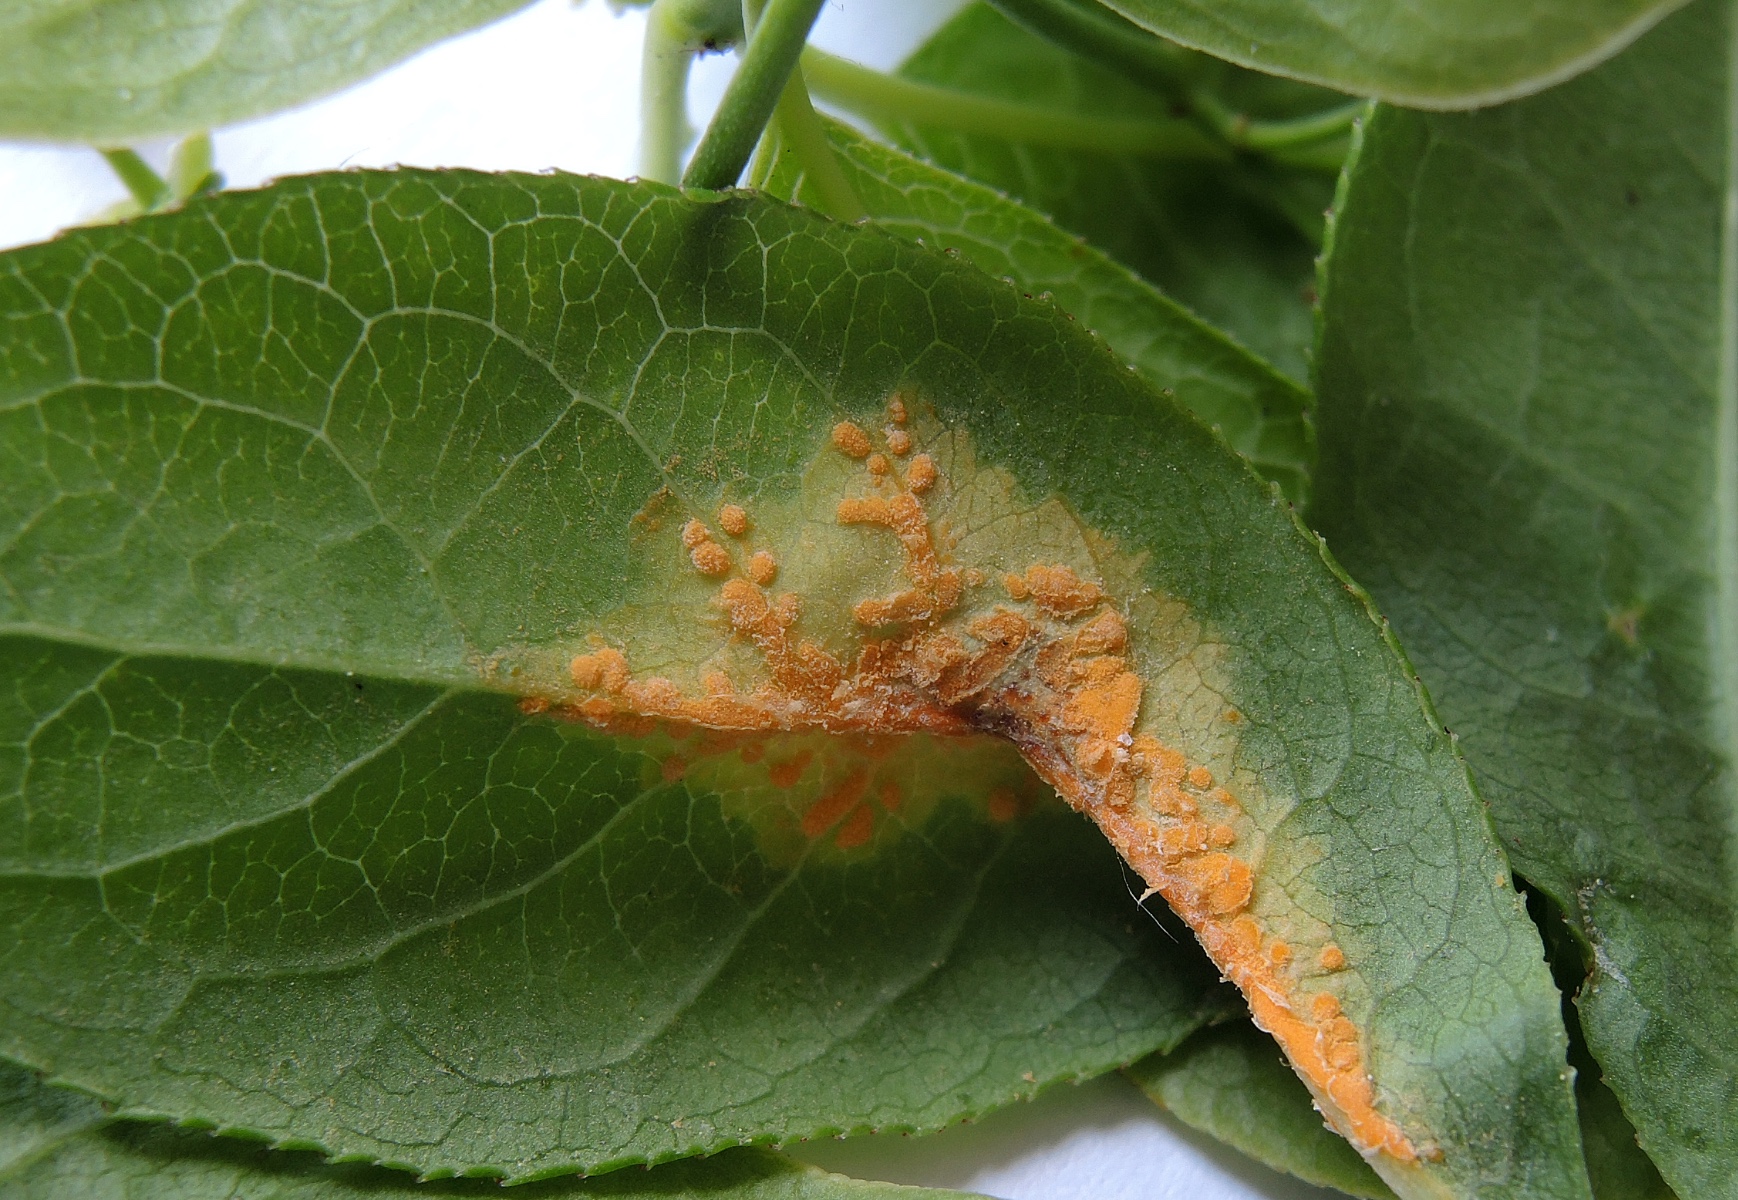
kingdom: Fungi
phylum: Basidiomycota
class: Pucciniomycetes
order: Pucciniales
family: Melampsoraceae
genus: Melampsora
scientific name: Melampsora epitea
